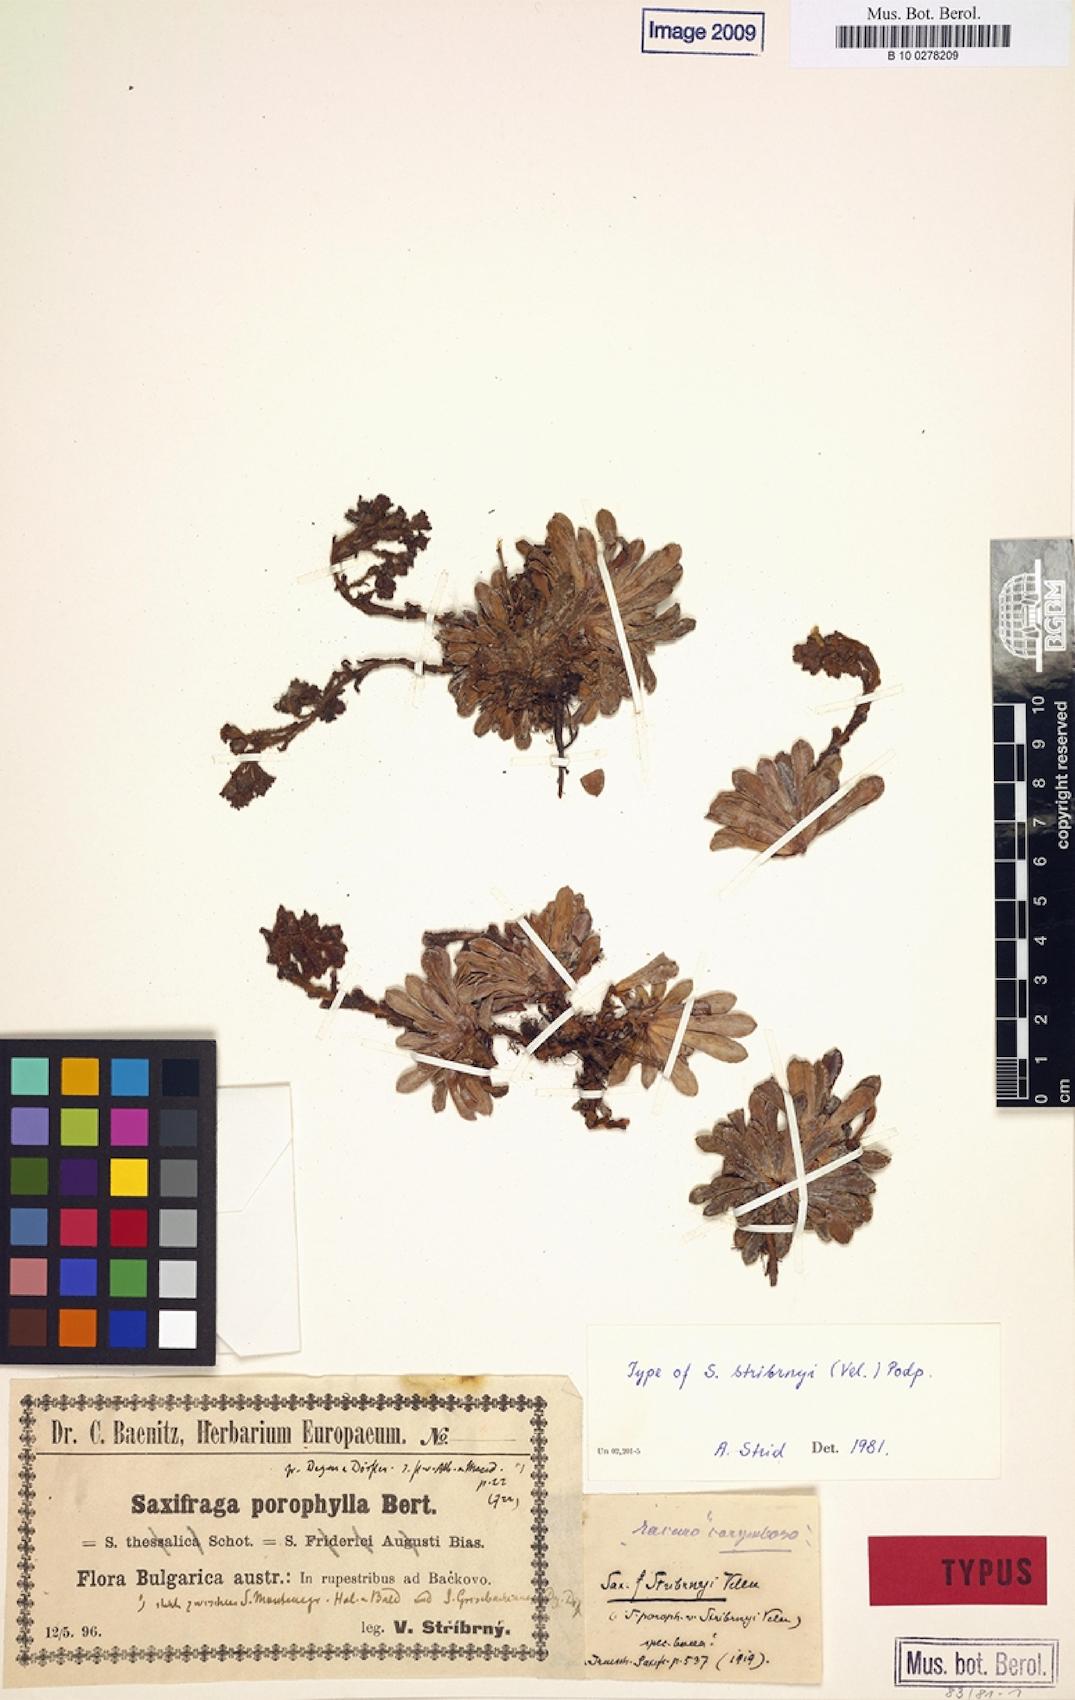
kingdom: Plantae
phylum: Tracheophyta
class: Magnoliopsida
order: Saxifragales
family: Saxifragaceae
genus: Saxifraga
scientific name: Saxifraga stribrnyi
